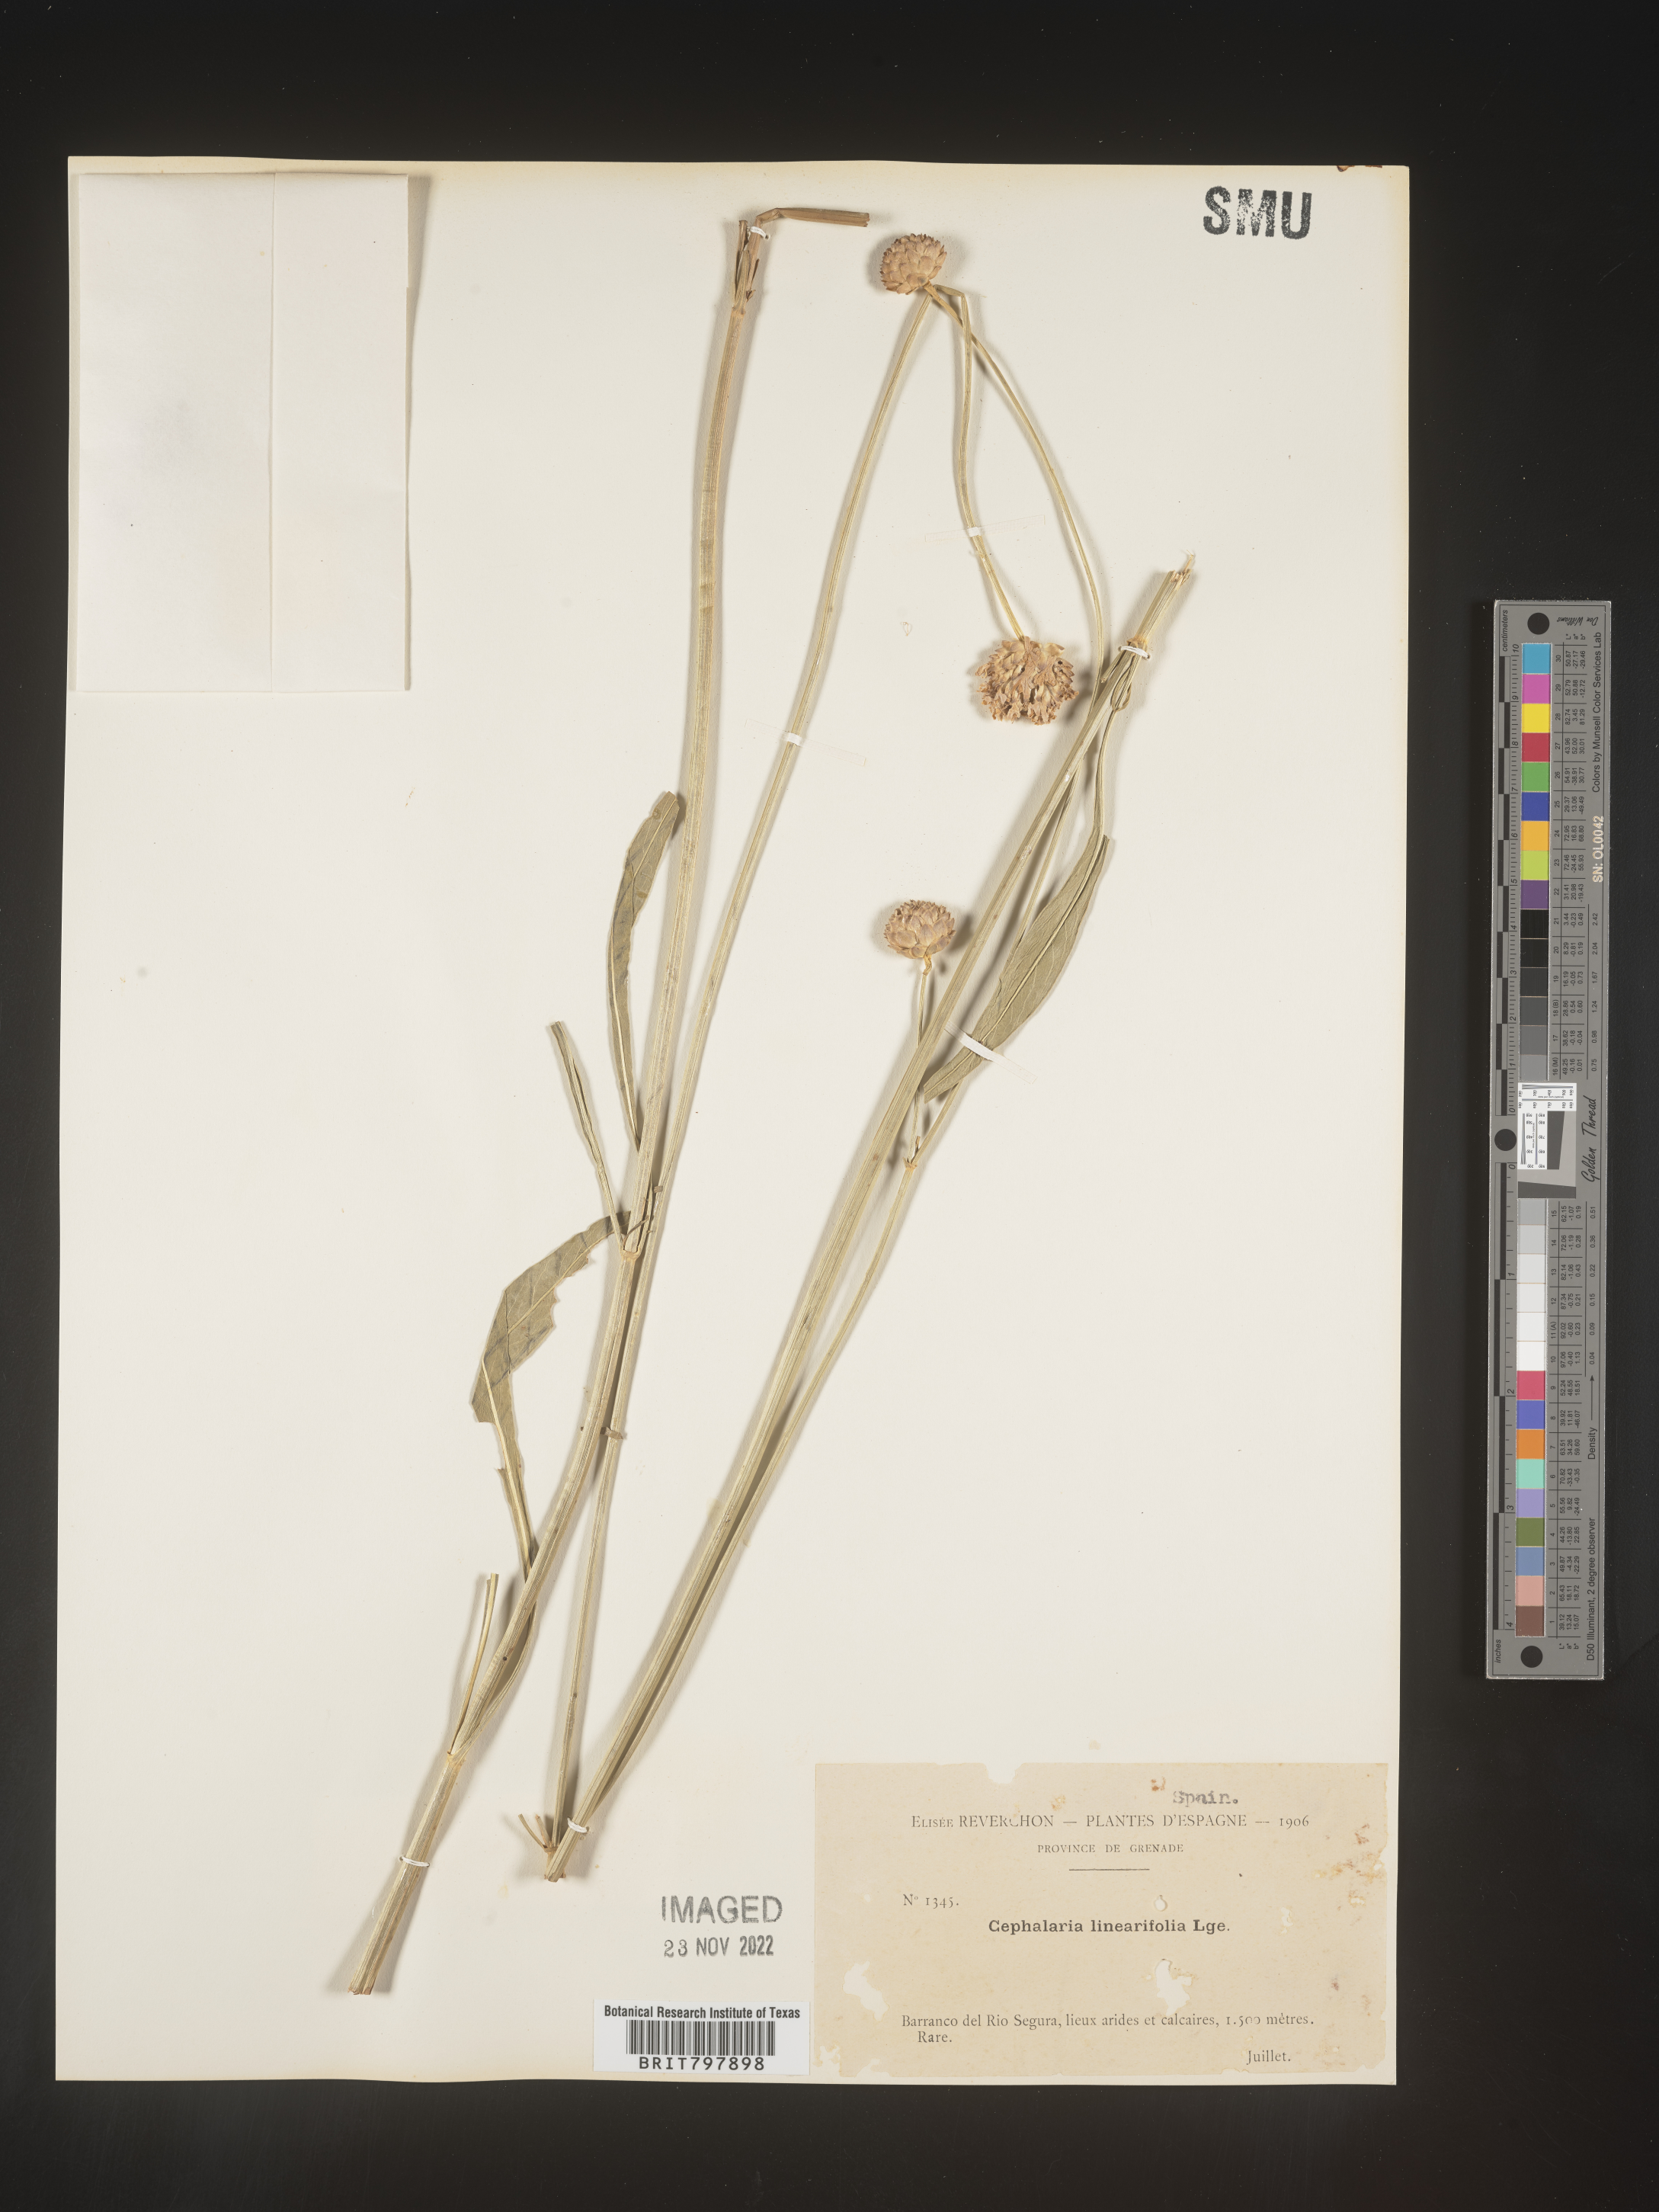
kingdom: Plantae
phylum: Tracheophyta
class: Magnoliopsida
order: Dipsacales
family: Caprifoliaceae
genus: Cephalaria
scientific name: Cephalaria
